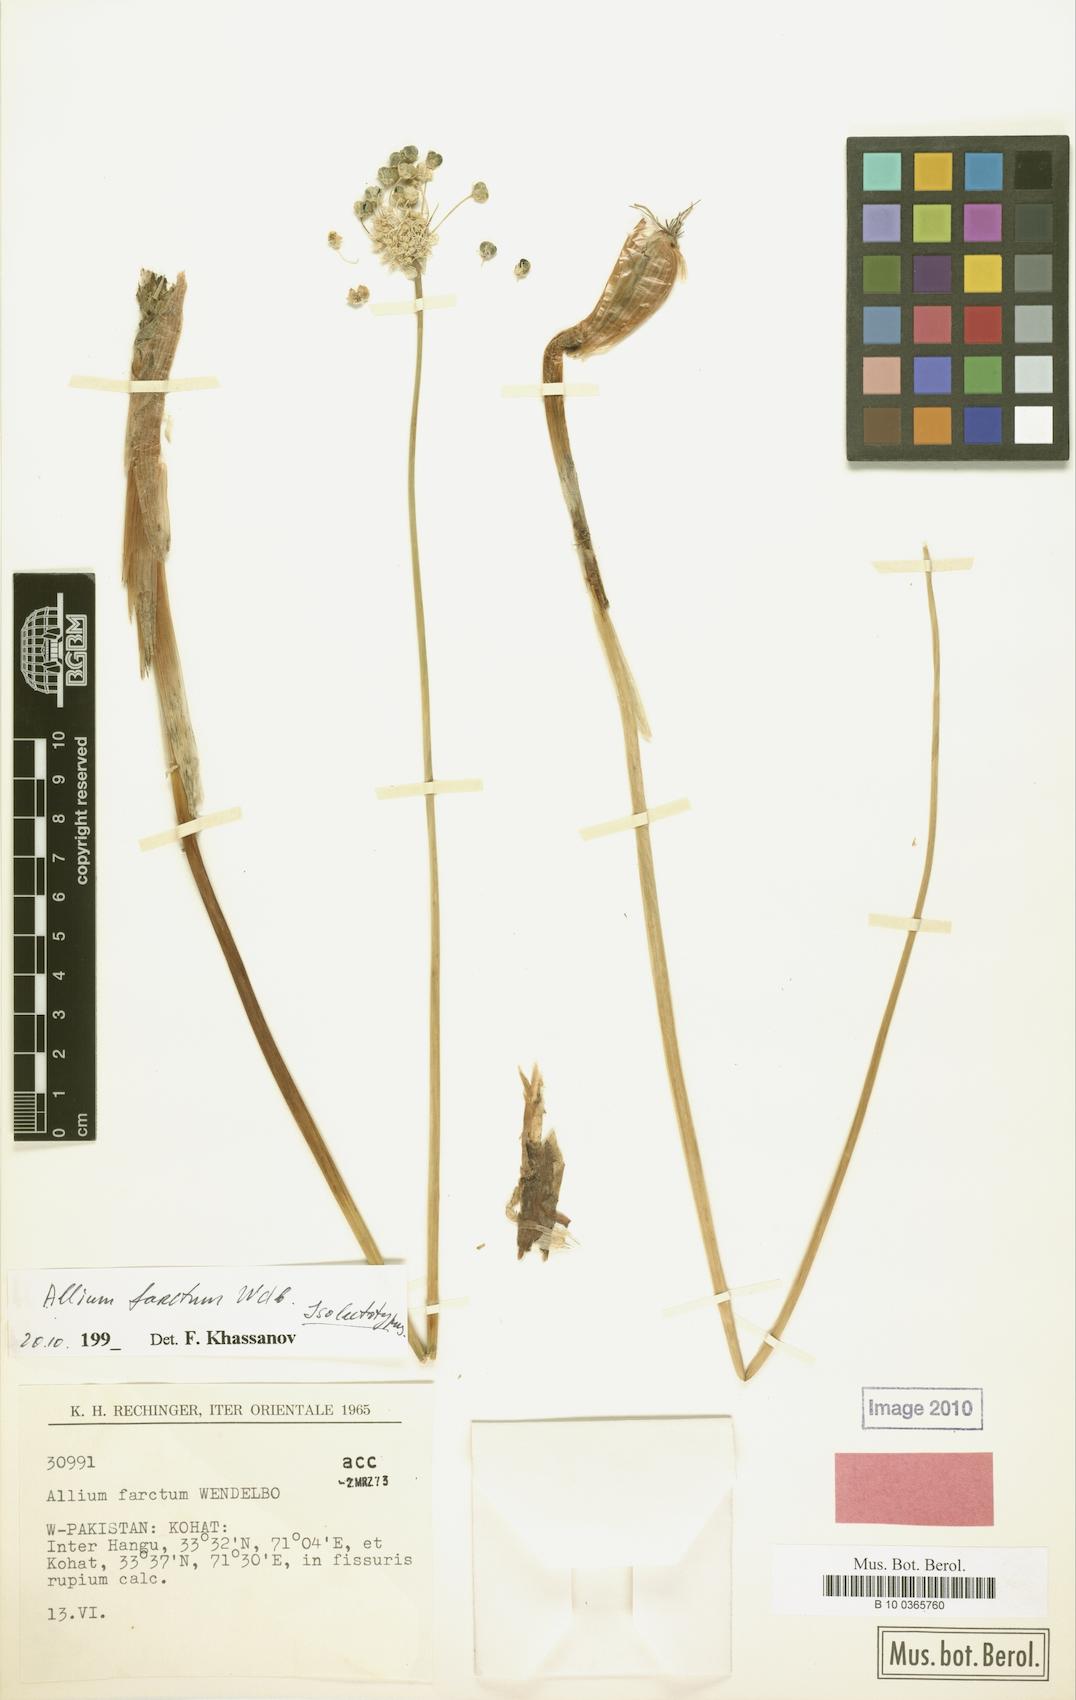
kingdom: Plantae
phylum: Tracheophyta
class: Liliopsida
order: Asparagales
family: Amaryllidaceae
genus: Allium
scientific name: Allium farctum
